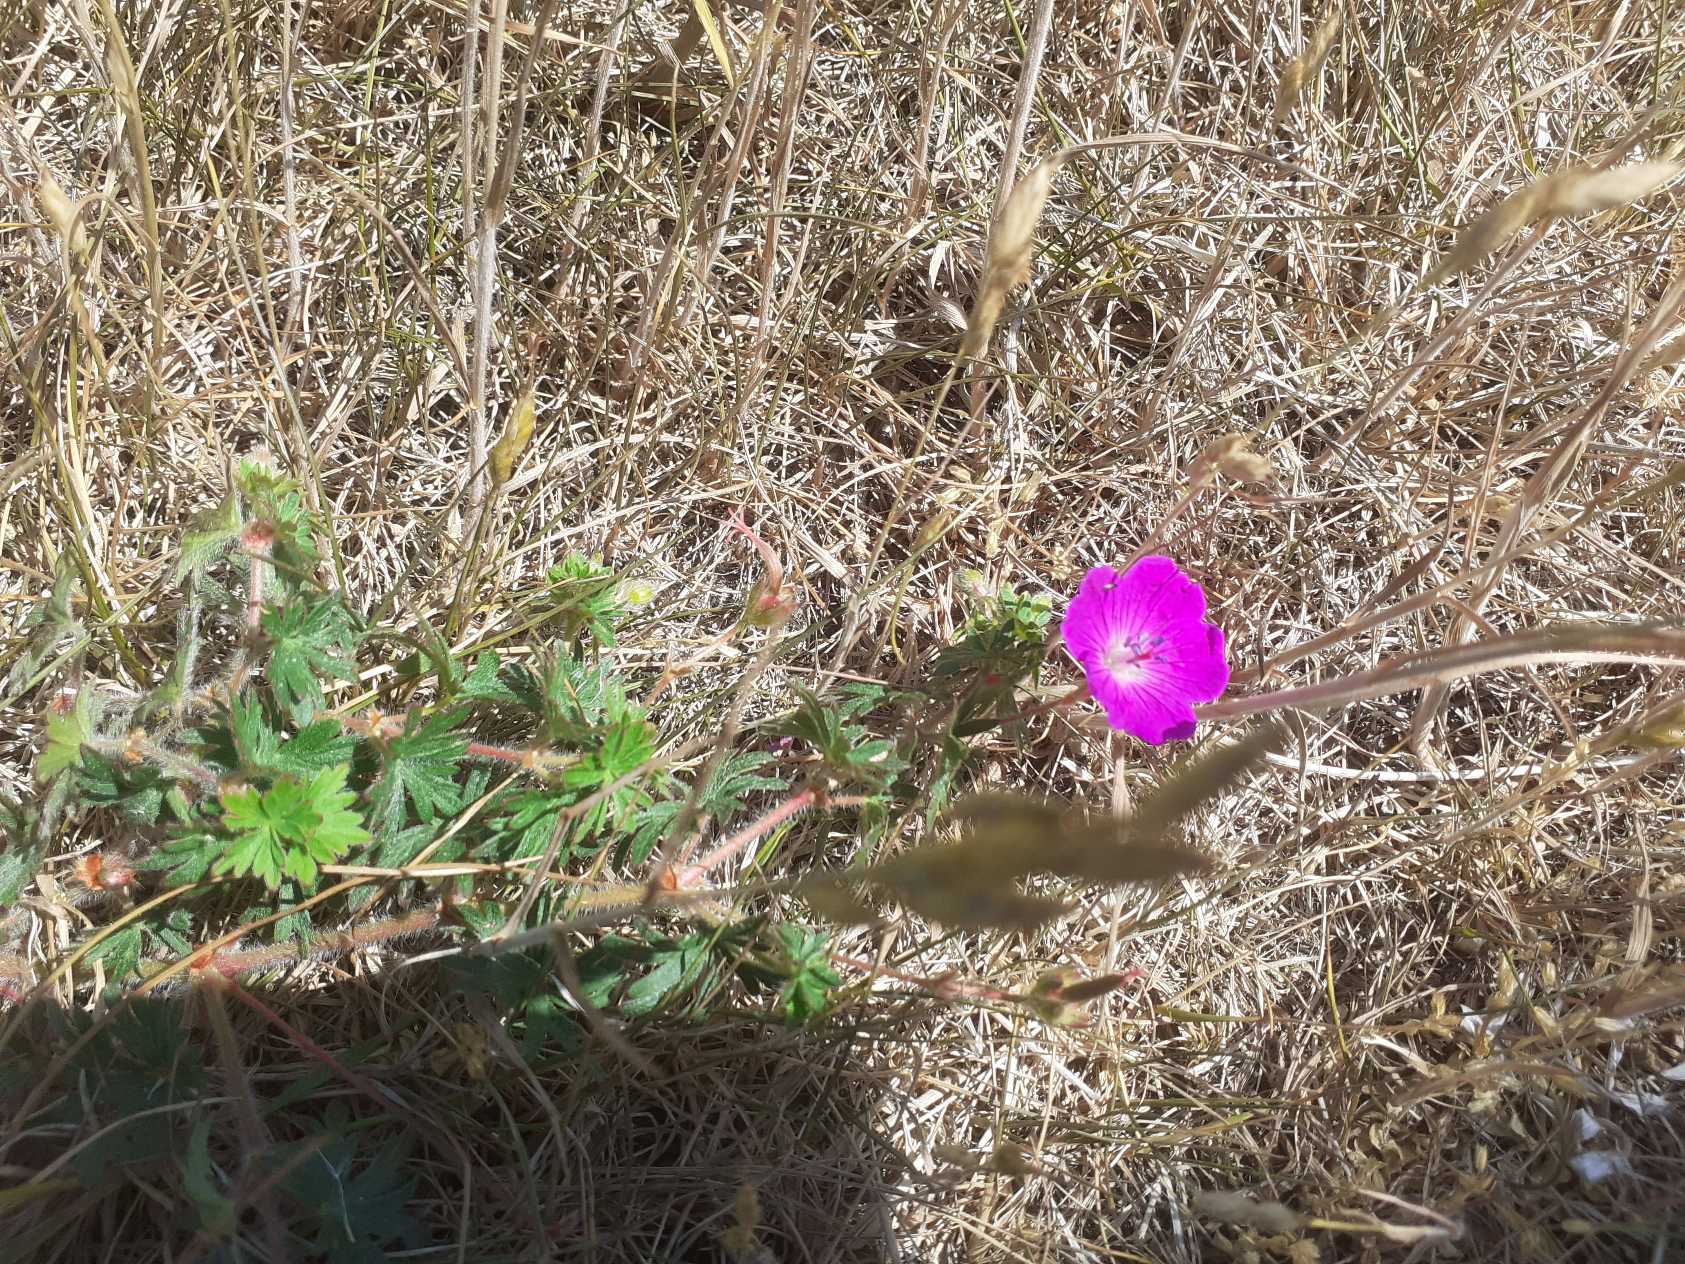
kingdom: Plantae
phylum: Tracheophyta
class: Magnoliopsida
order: Geraniales
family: Geraniaceae
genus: Geranium
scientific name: Geranium sanguineum
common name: Blodrød storkenæb
